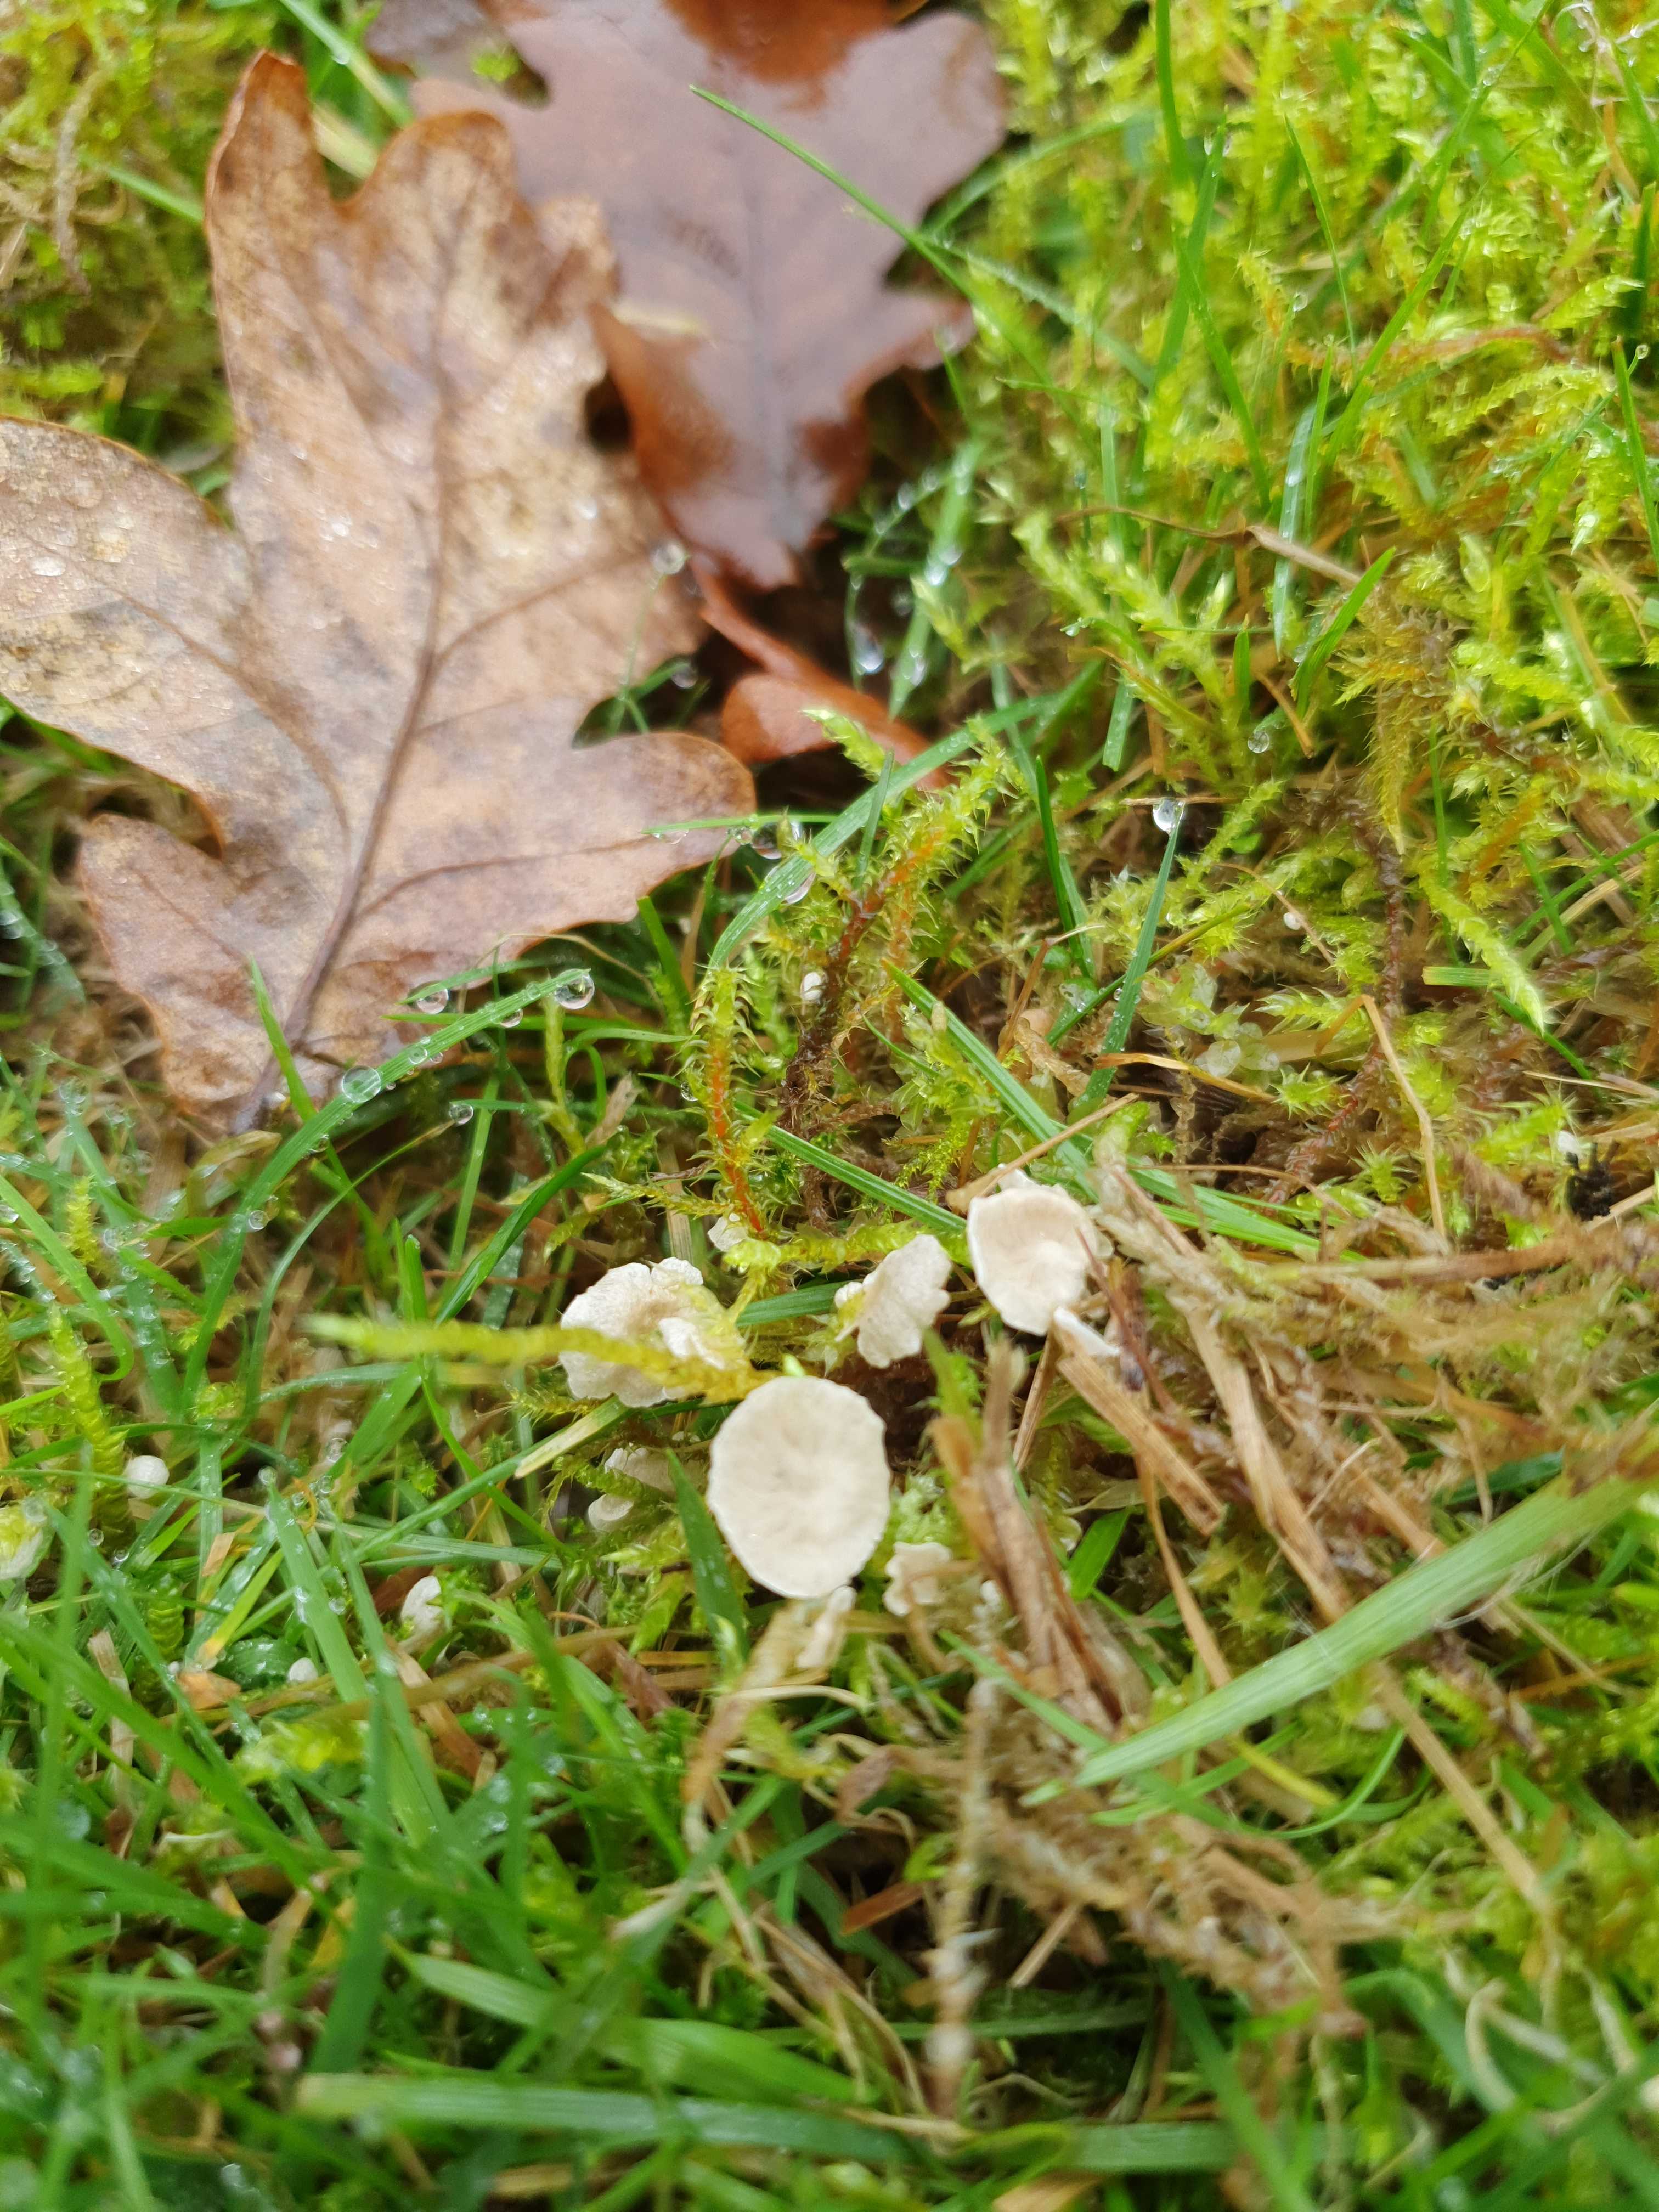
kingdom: Fungi
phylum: Basidiomycota
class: Agaricomycetes
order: Agaricales
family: Hygrophoraceae
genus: Arrhenia
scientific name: Arrhenia retiruga
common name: lille fontænehat
